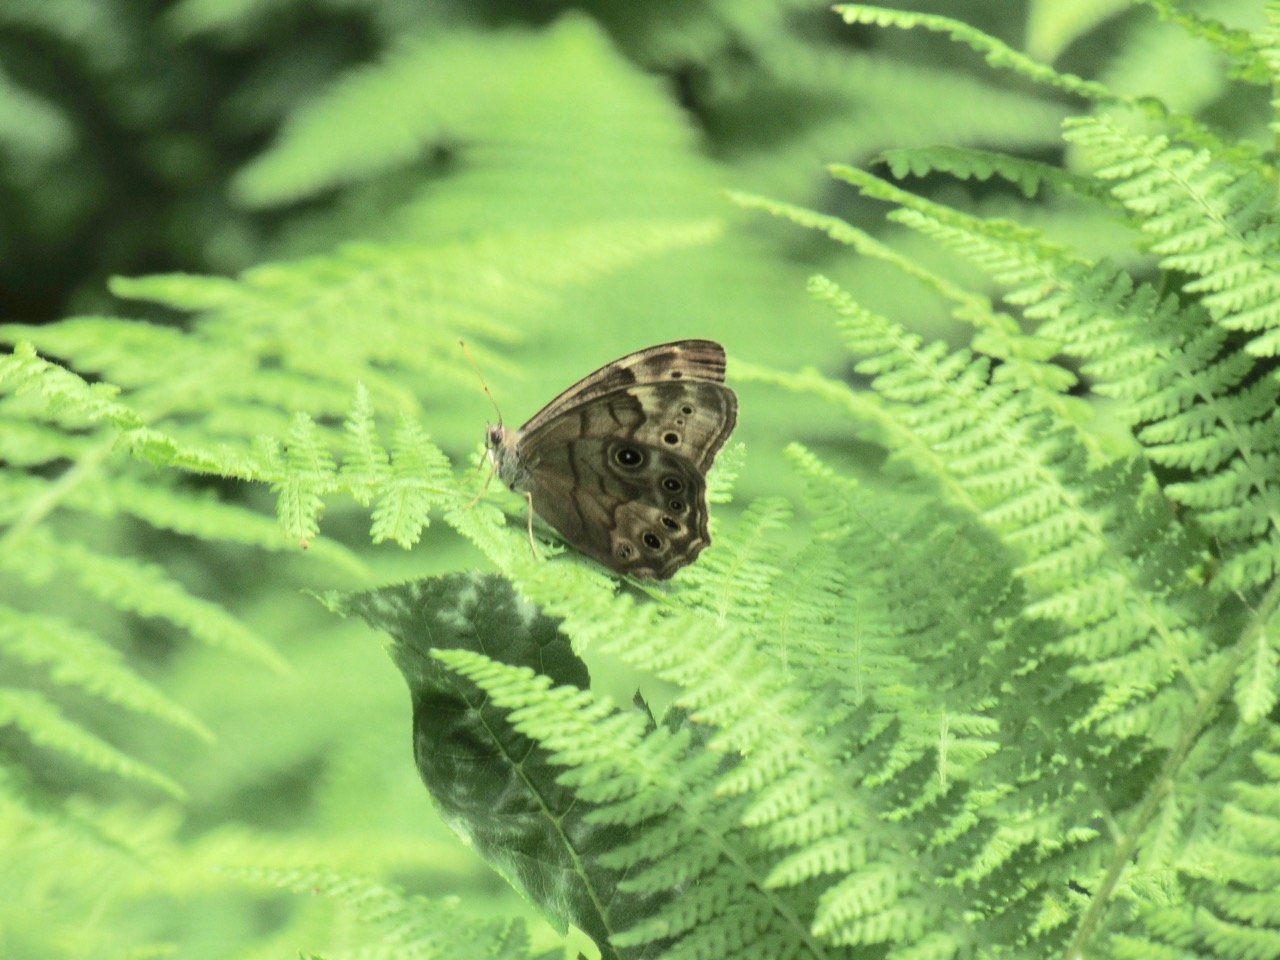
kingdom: Animalia
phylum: Arthropoda
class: Insecta
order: Lepidoptera
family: Nymphalidae
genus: Lethe
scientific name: Lethe anthedon
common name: Northern Pearly-Eye
